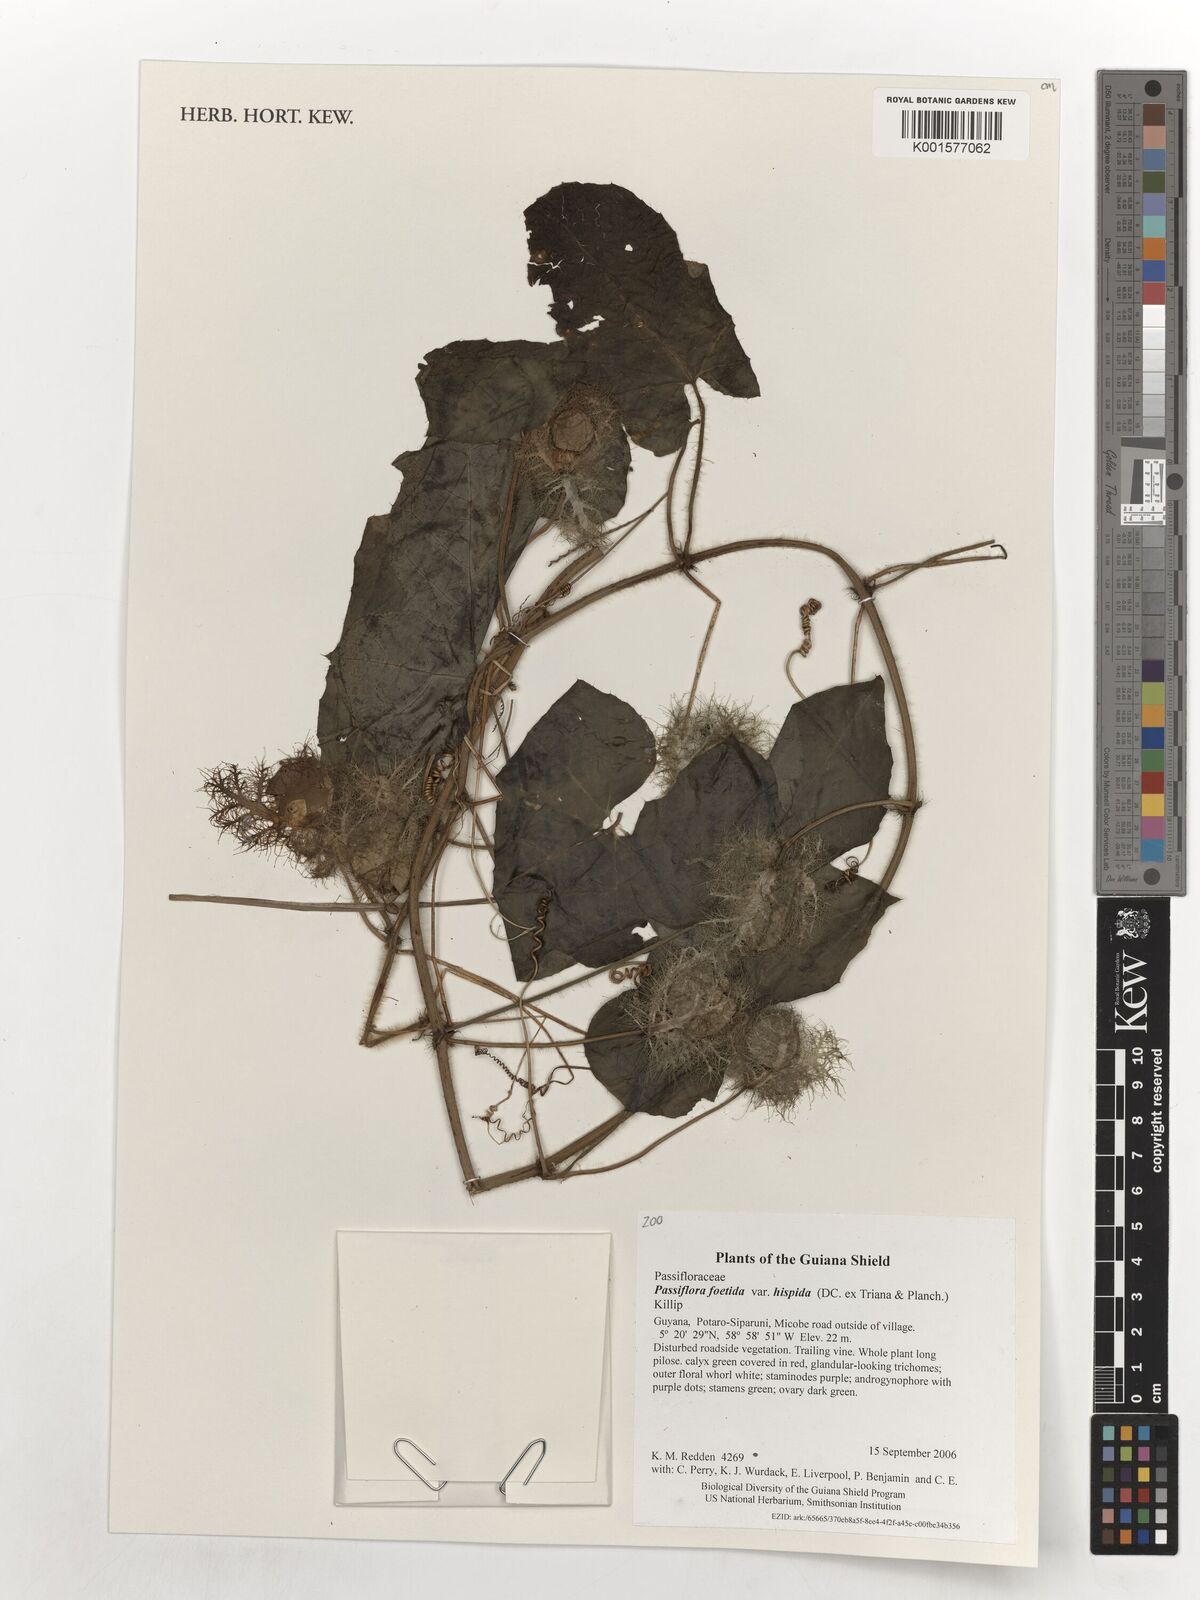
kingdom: Plantae
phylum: Tracheophyta
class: Magnoliopsida
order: Malpighiales
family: Passifloraceae
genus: Passiflora
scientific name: Passiflora vesicaria
